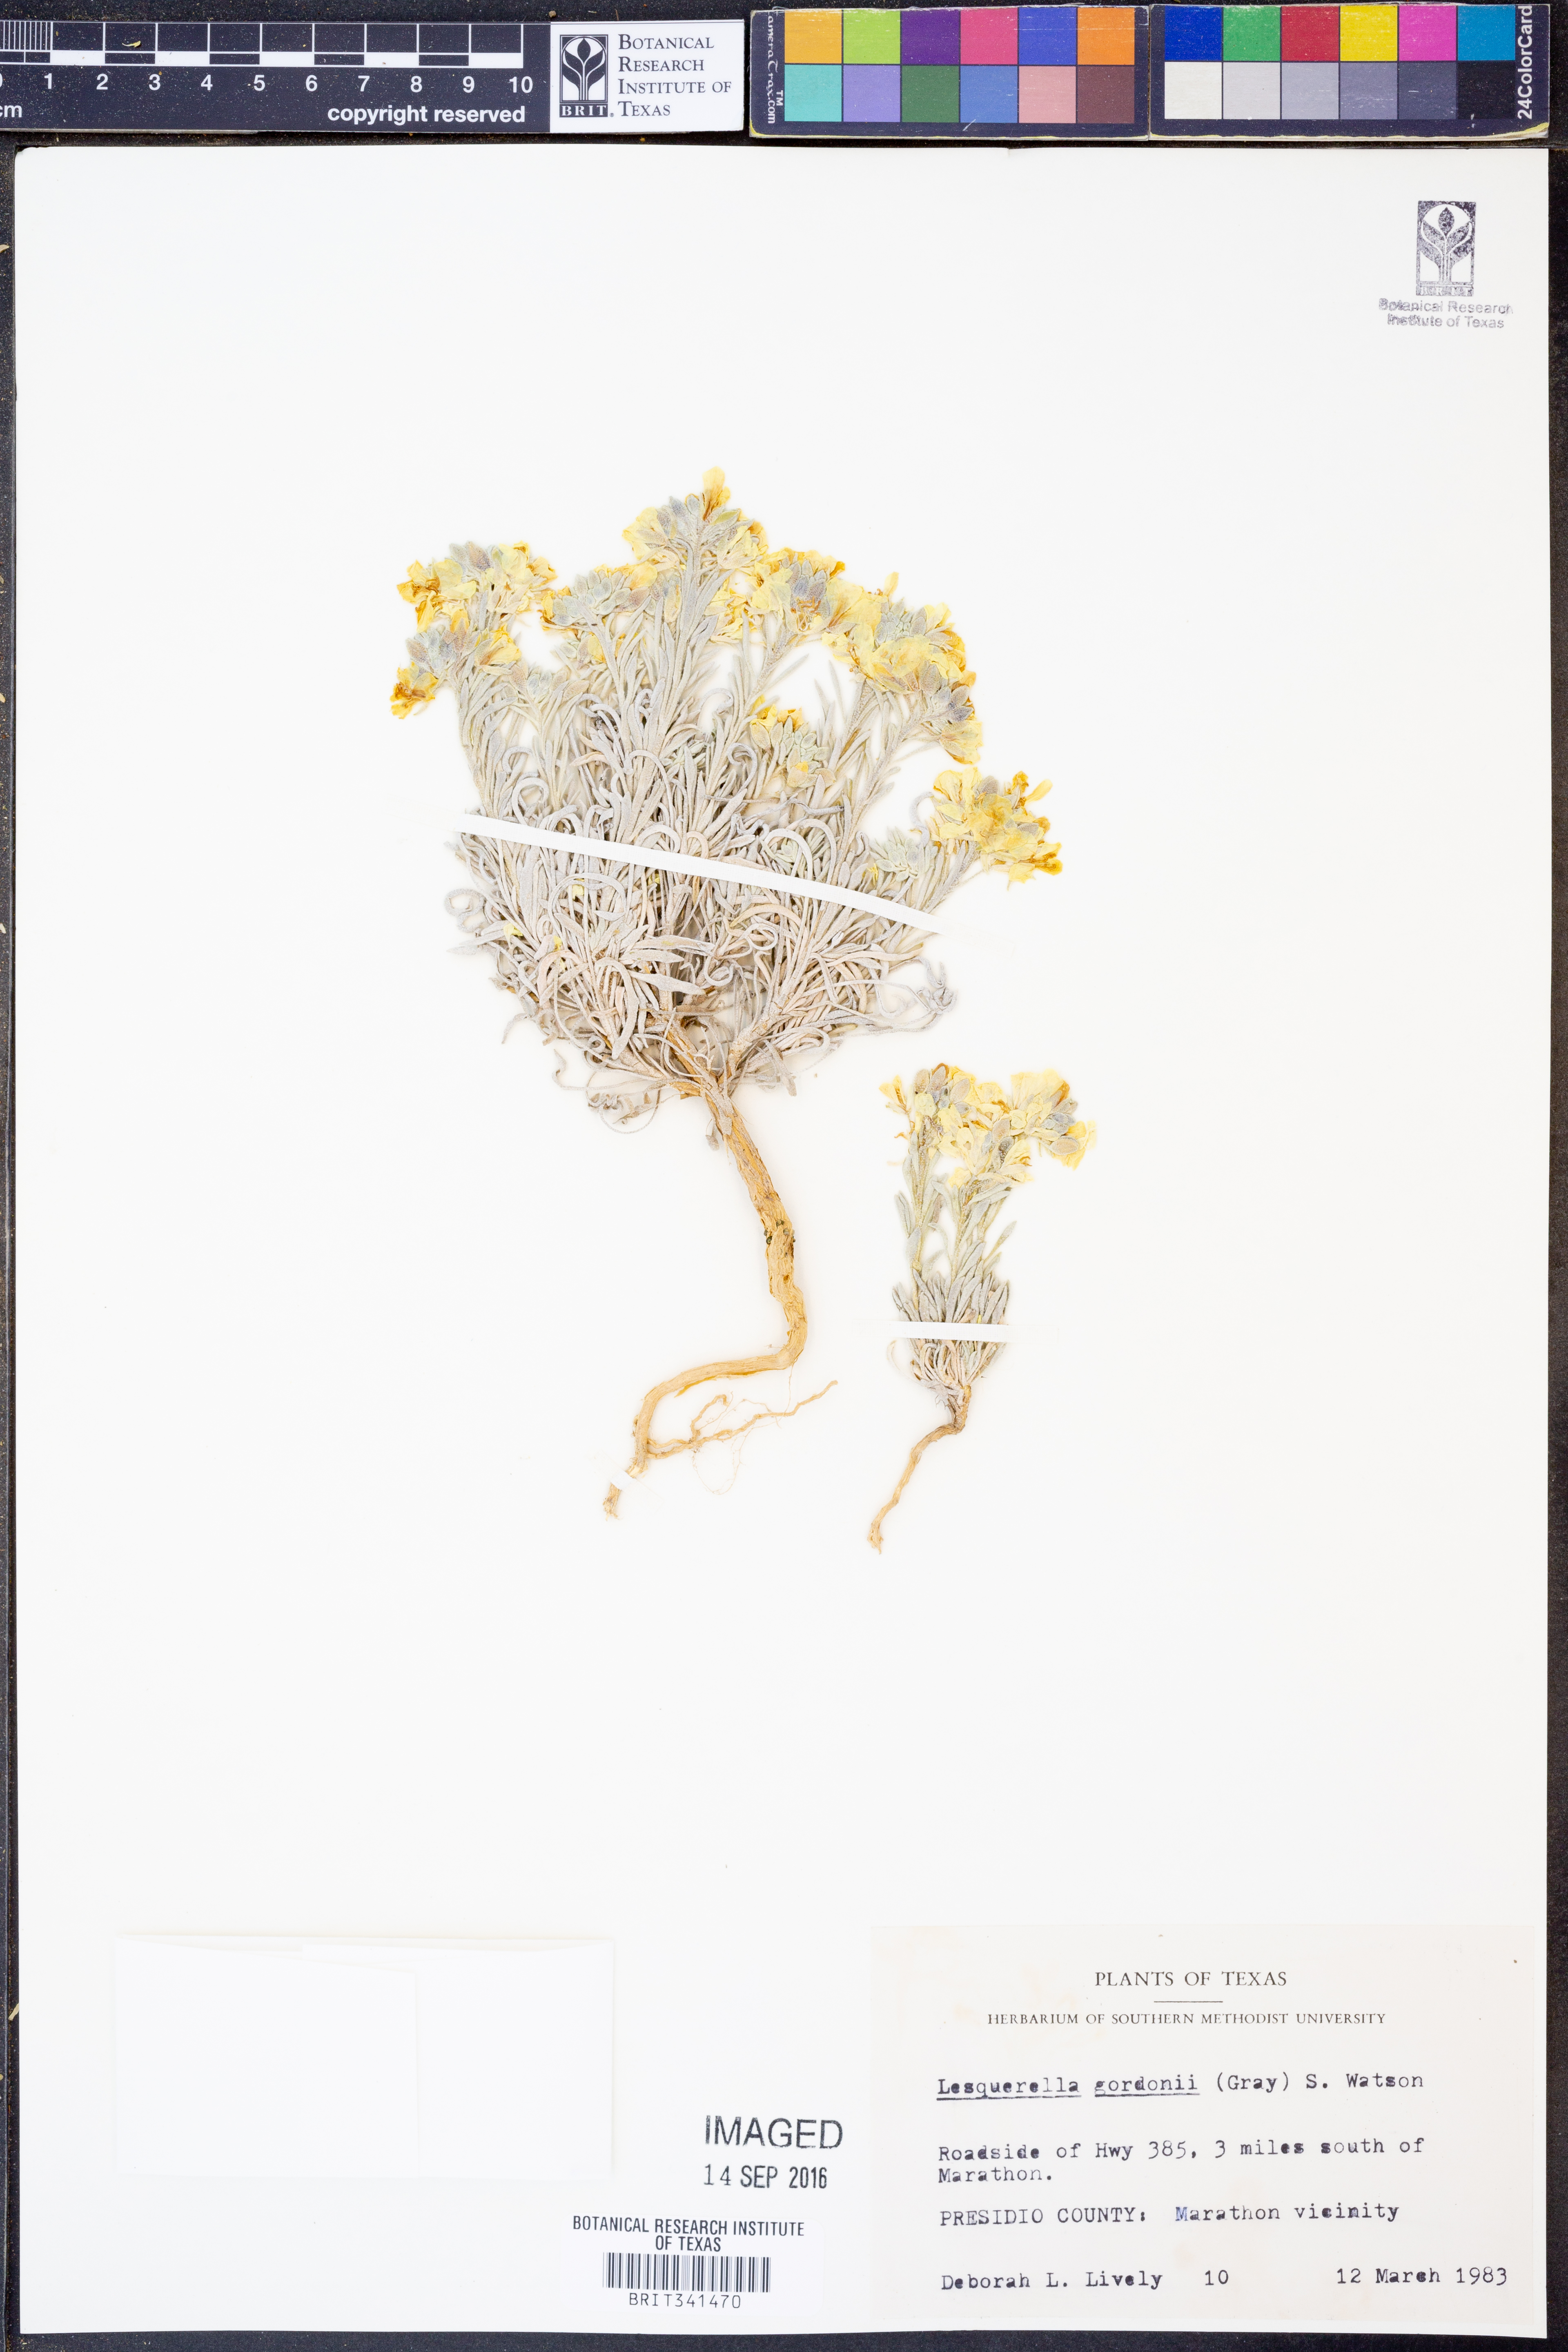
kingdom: Plantae
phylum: Tracheophyta
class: Magnoliopsida
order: Brassicales
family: Brassicaceae
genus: Physaria
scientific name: Physaria gordonii
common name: Gordon's bladderpod
